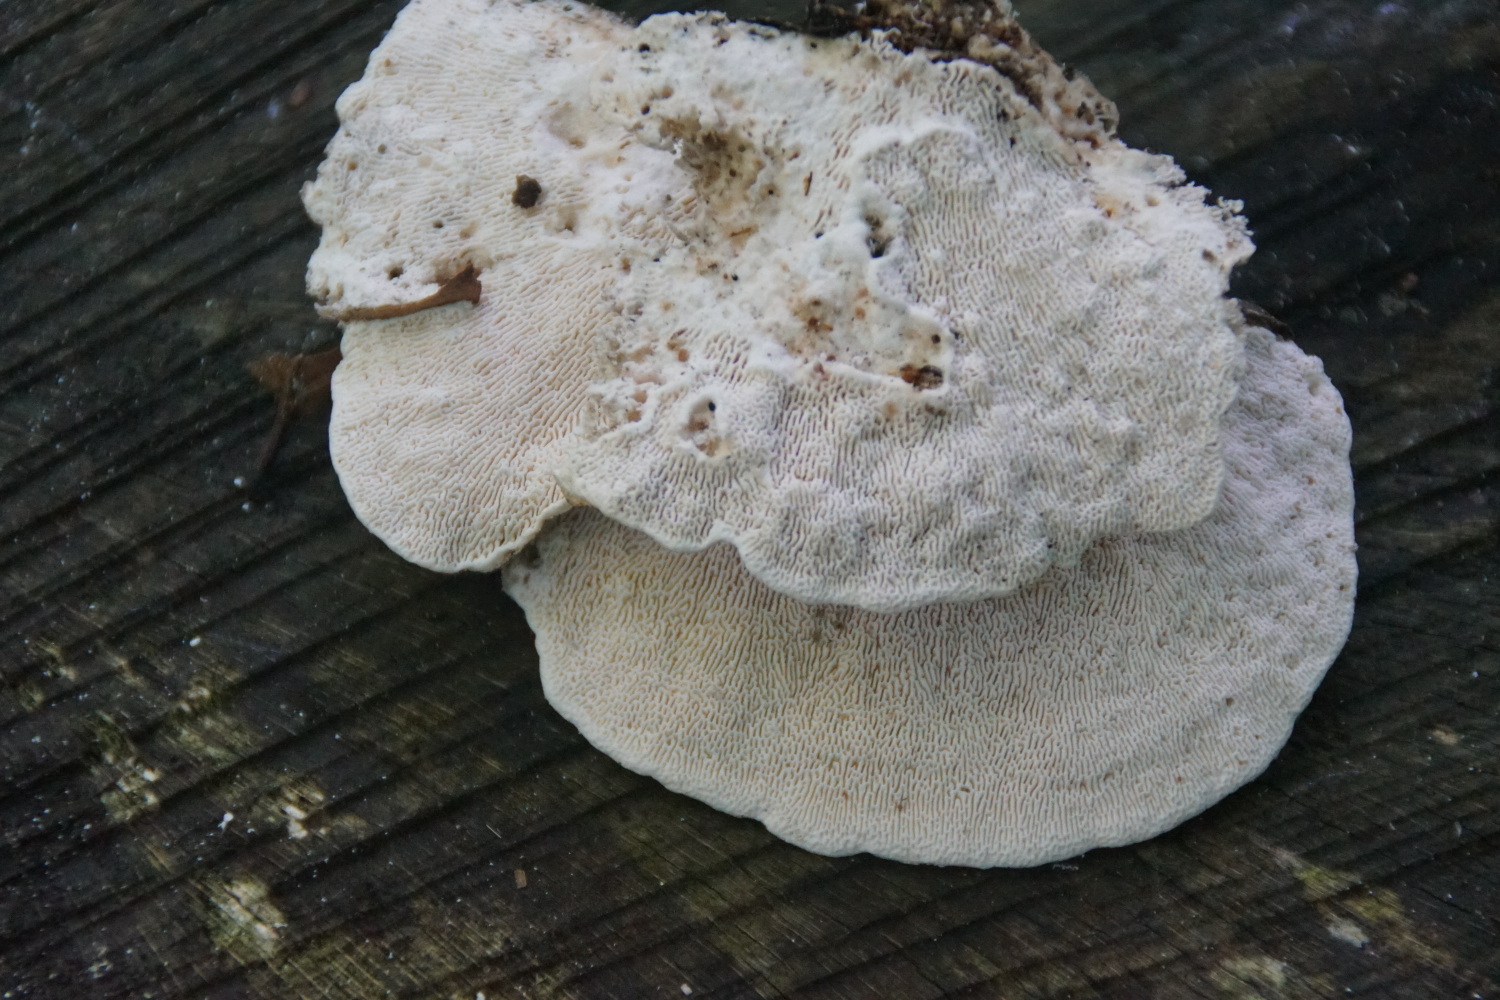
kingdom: Fungi
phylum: Basidiomycota
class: Agaricomycetes
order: Polyporales
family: Polyporaceae
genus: Trametes
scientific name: Trametes gibbosa
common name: puklet læderporesvamp
